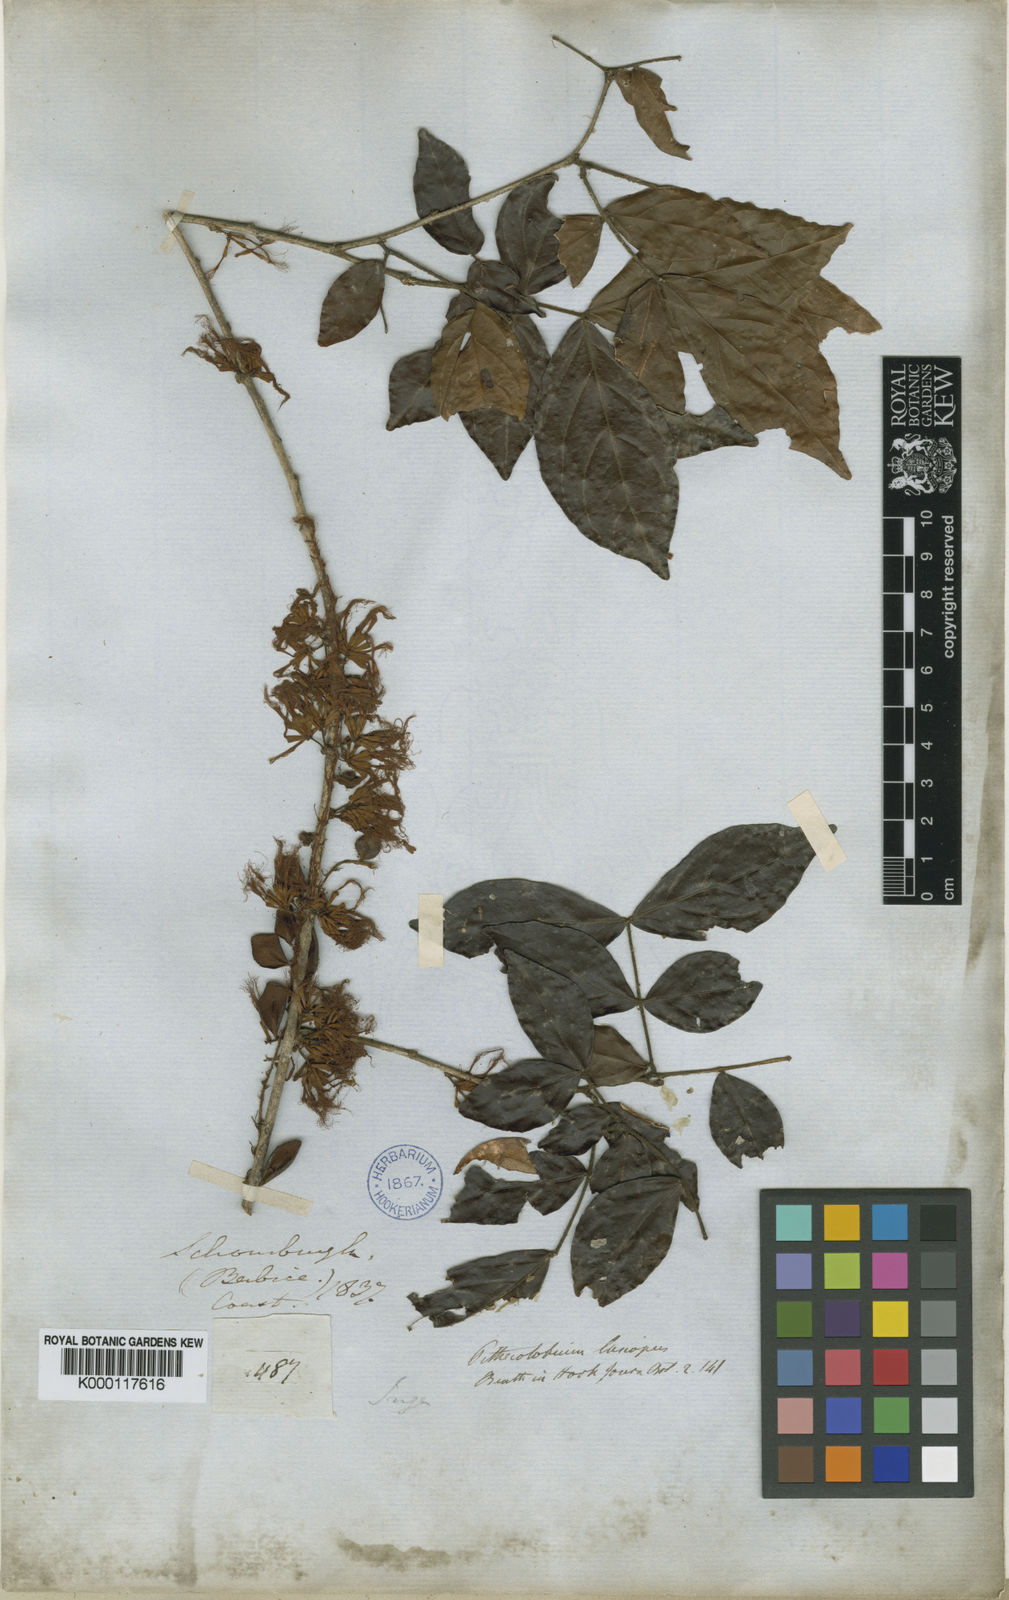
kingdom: Plantae
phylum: Tracheophyta
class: Magnoliopsida
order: Fabales
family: Fabaceae
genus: Zygia
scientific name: Zygia
